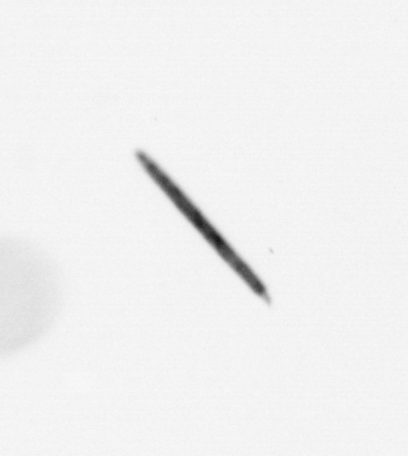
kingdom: Bacteria
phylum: Cyanobacteria
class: Cyanobacteriia
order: Cyanobacteriales
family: Microcoleaceae
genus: Trichodesmium
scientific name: Trichodesmium
